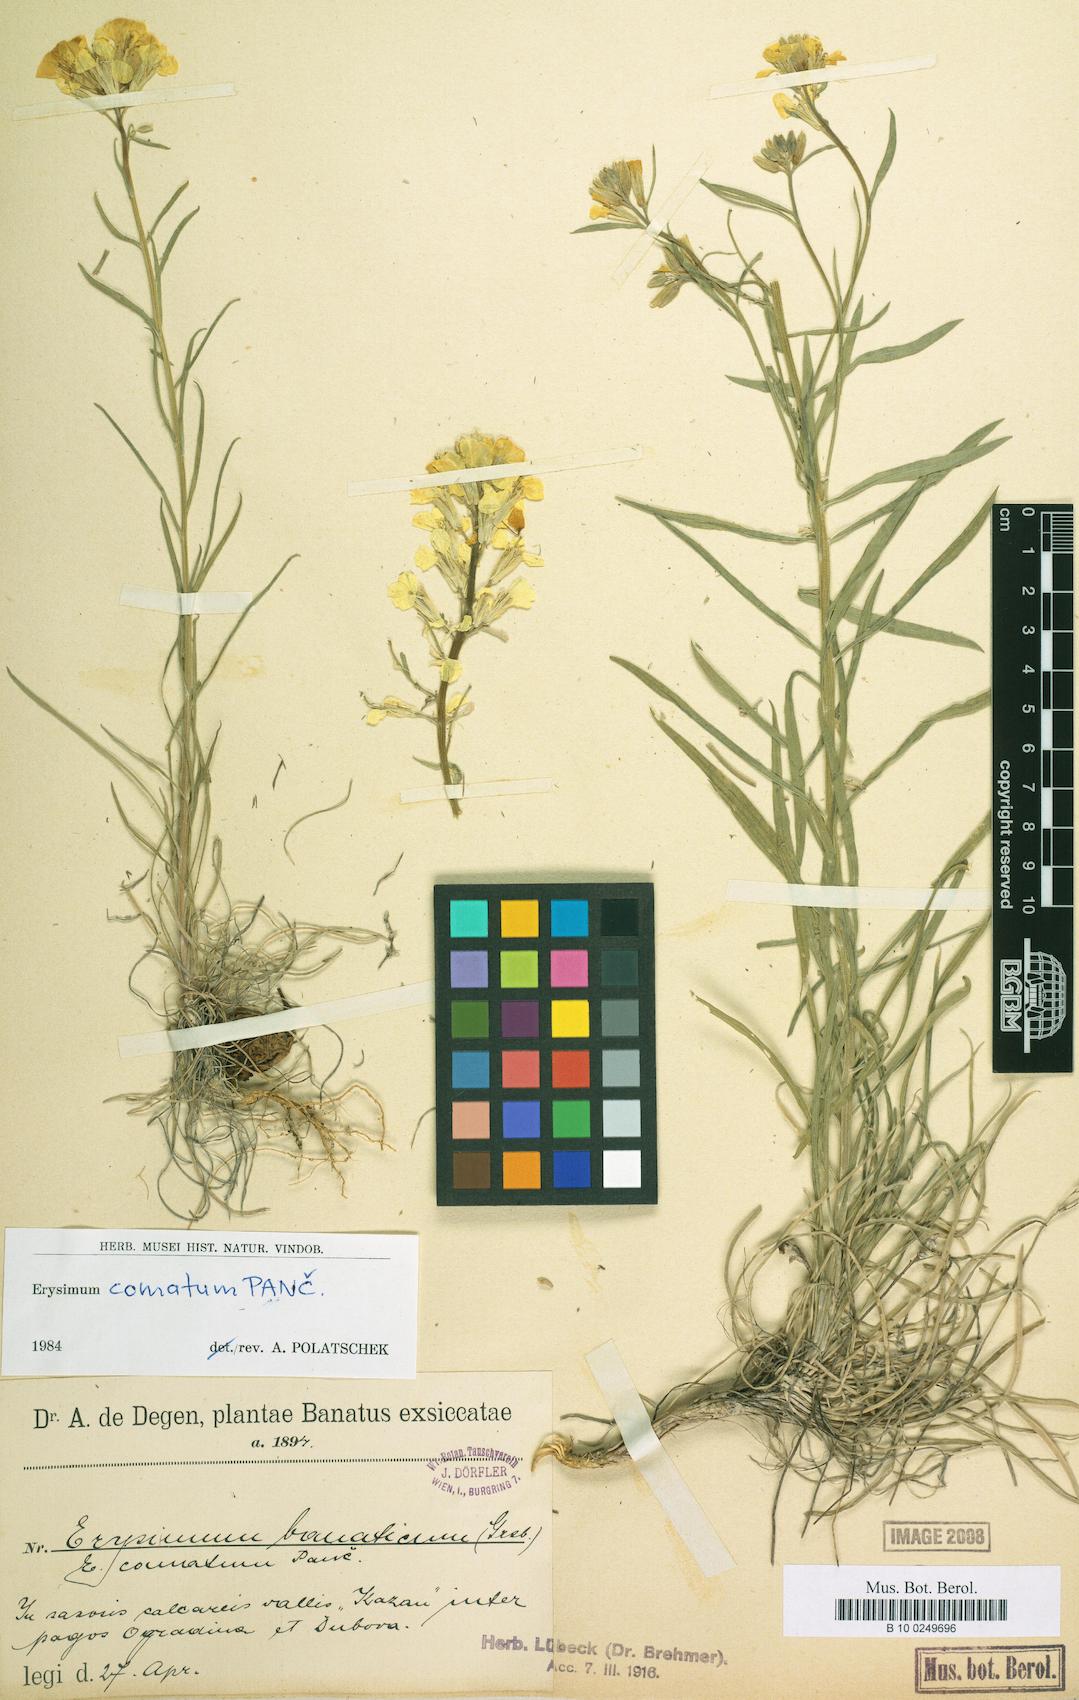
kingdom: Plantae
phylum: Tracheophyta
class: Magnoliopsida
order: Brassicales
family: Brassicaceae
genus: Erysimum
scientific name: Erysimum comatum
